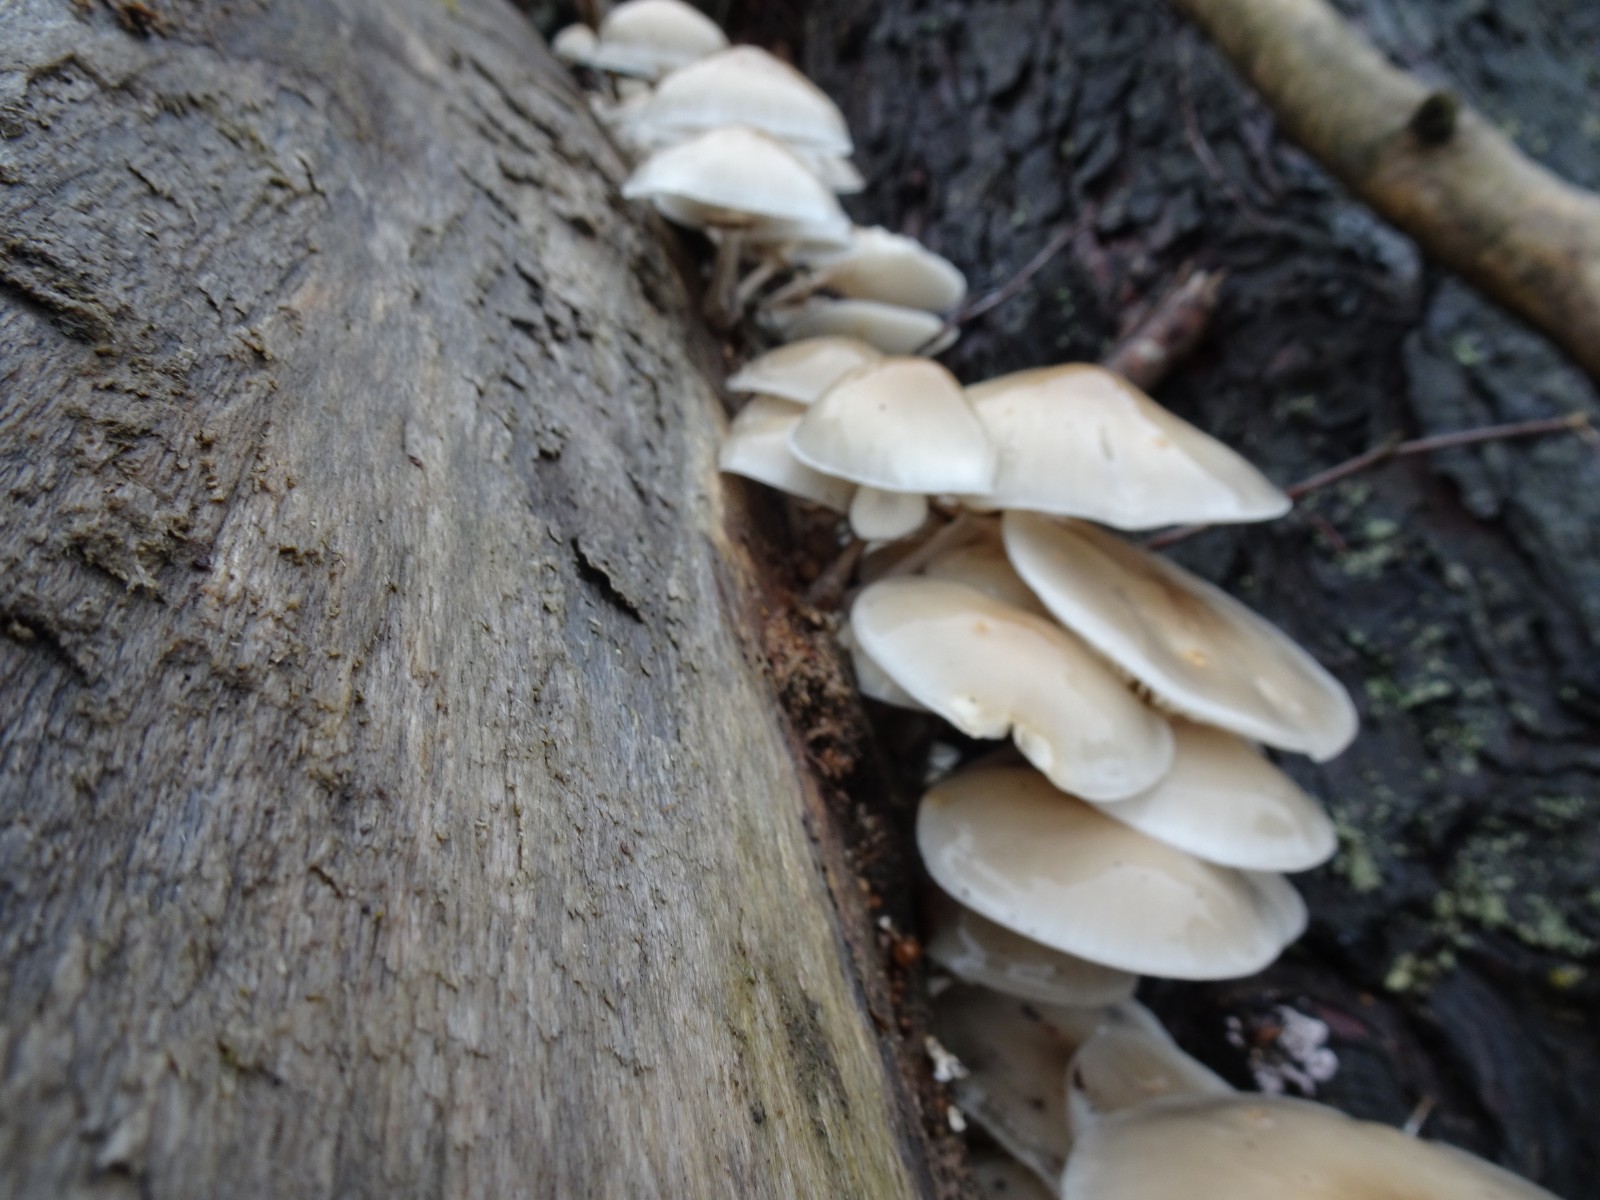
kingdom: Fungi
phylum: Basidiomycota
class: Agaricomycetes
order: Agaricales
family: Physalacriaceae
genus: Mucidula
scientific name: Mucidula mucida
